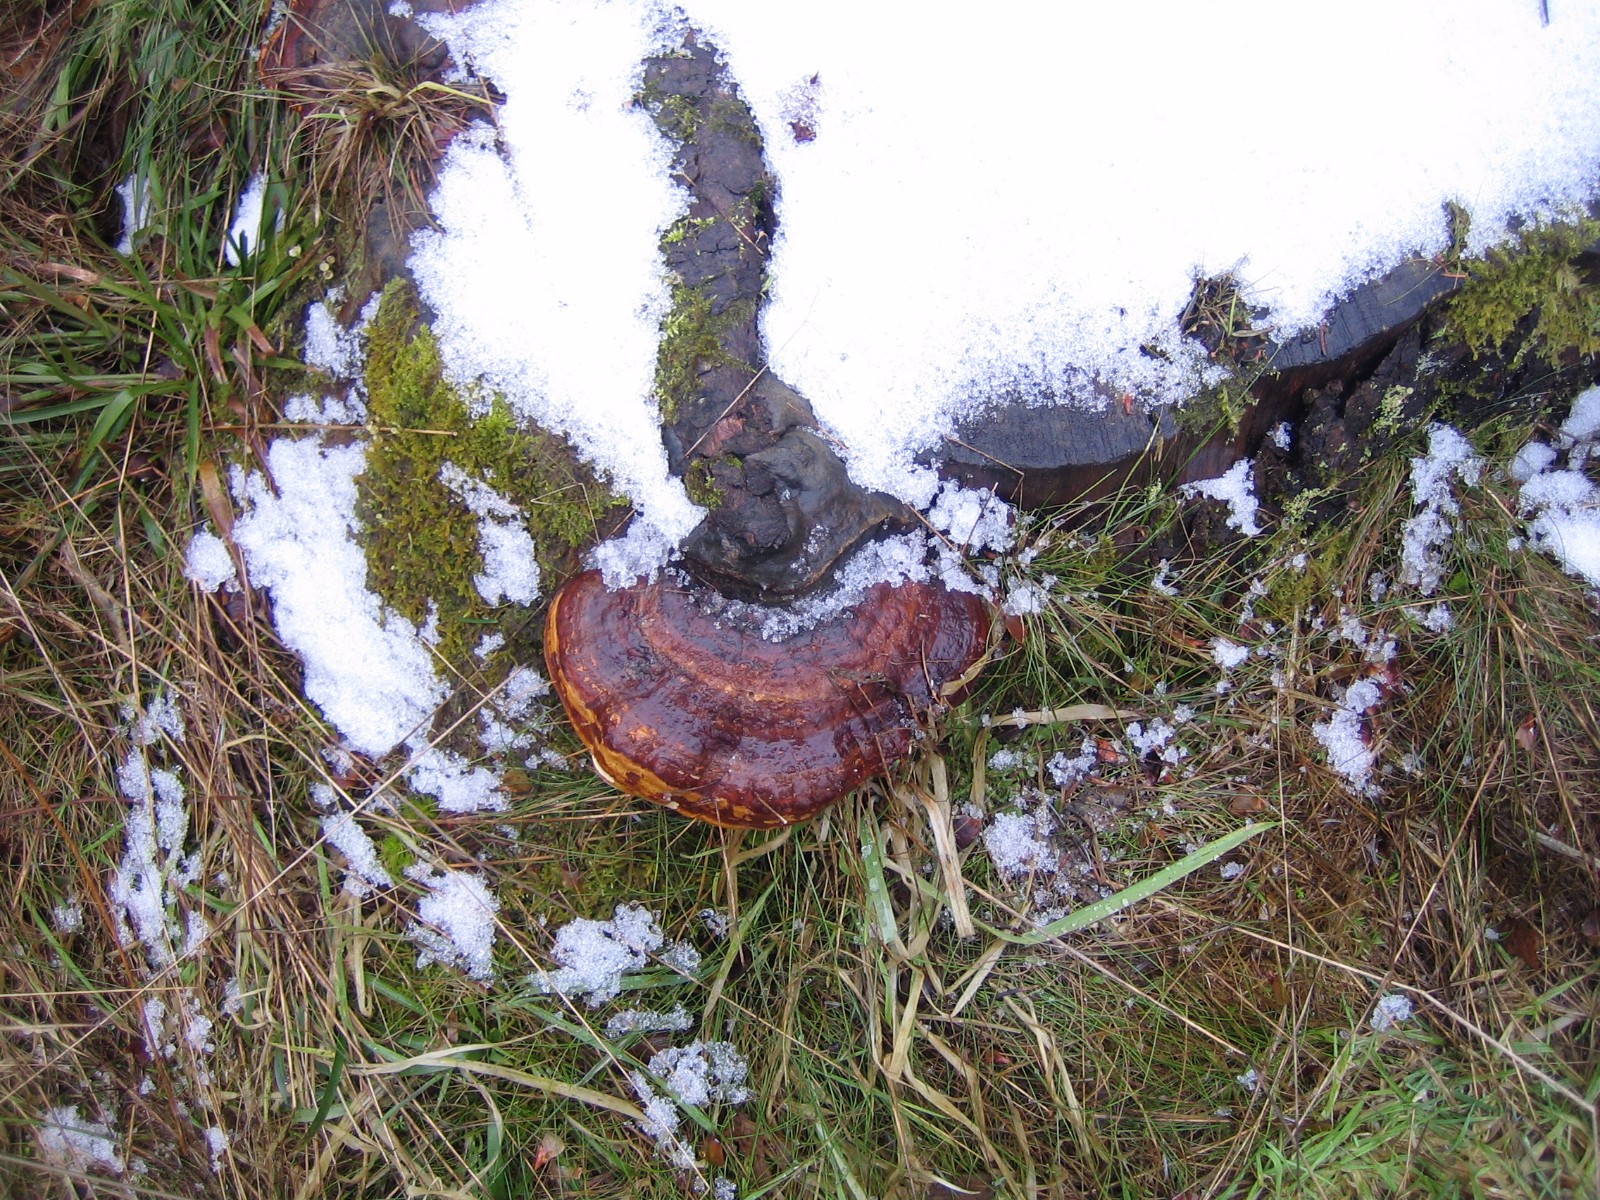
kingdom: Fungi
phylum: Basidiomycota
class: Agaricomycetes
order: Polyporales
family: Fomitopsidaceae
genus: Fomitopsis
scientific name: Fomitopsis pinicola
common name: randbæltet hovporesvamp
